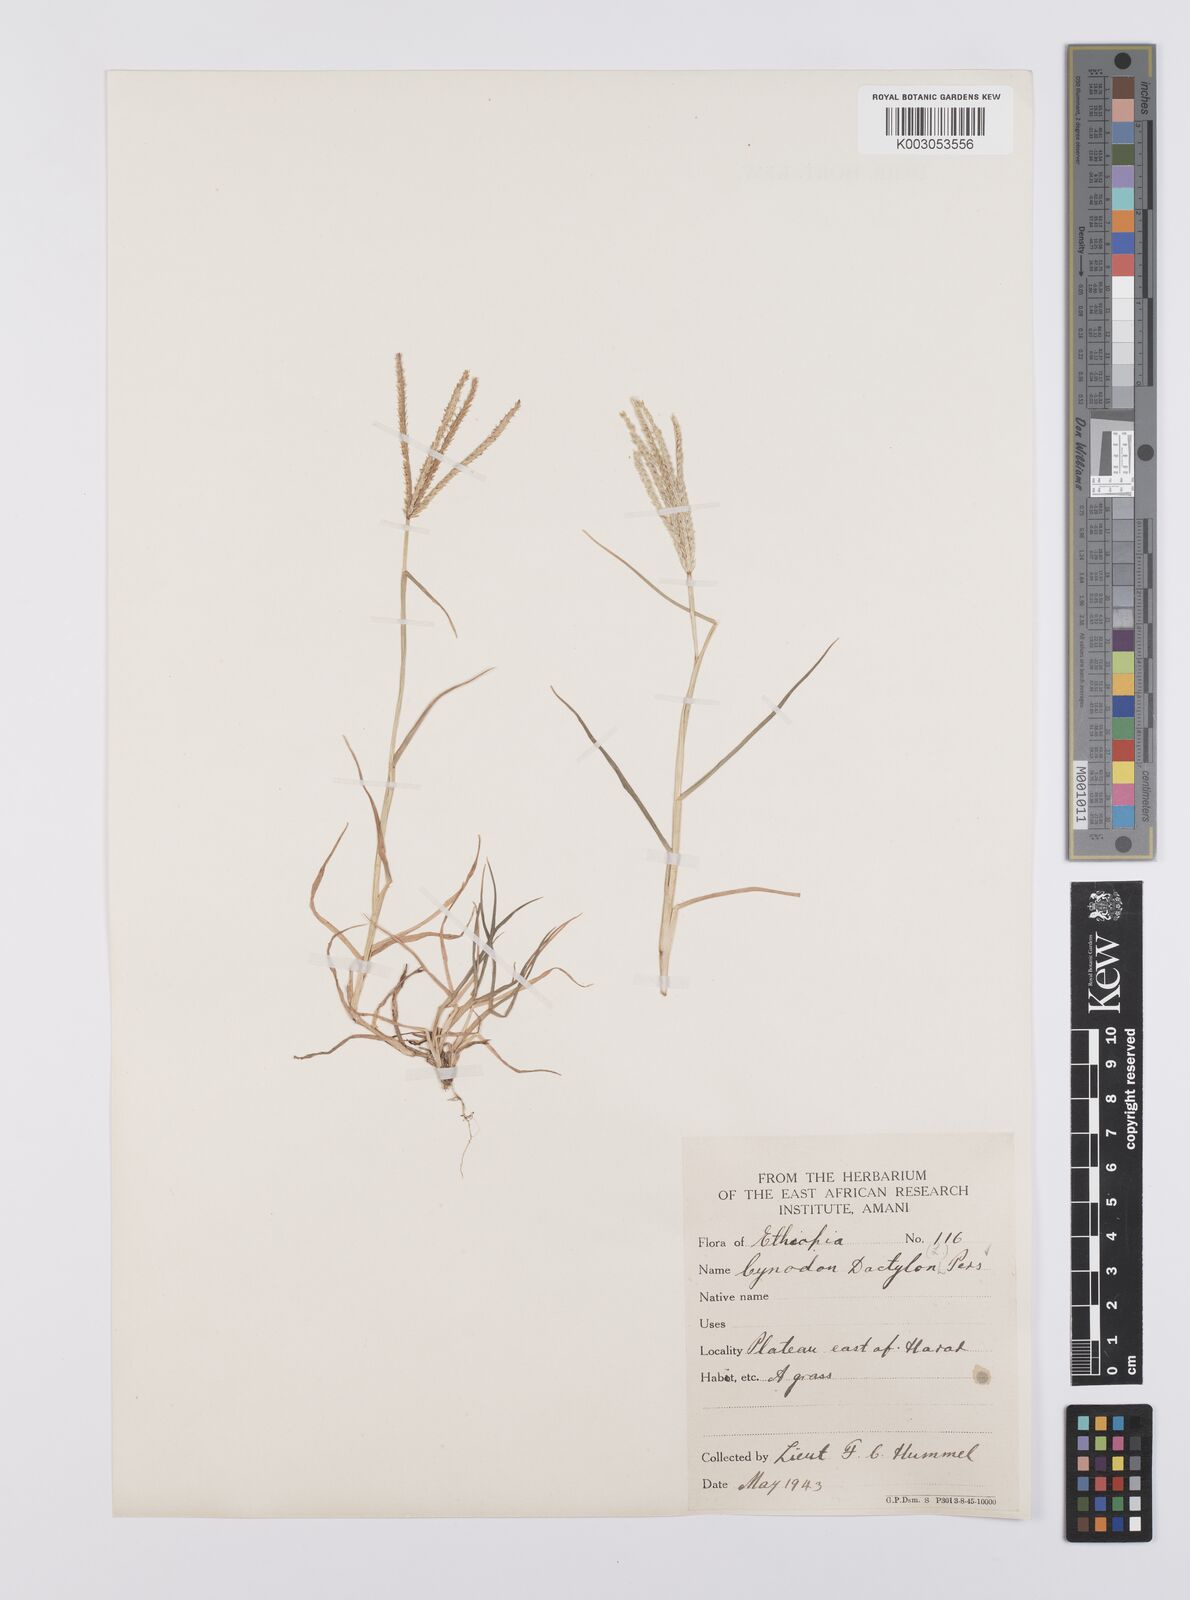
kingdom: Plantae
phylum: Tracheophyta
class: Liliopsida
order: Poales
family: Poaceae
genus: Cynodon
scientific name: Cynodon dactylon
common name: Bermuda grass
